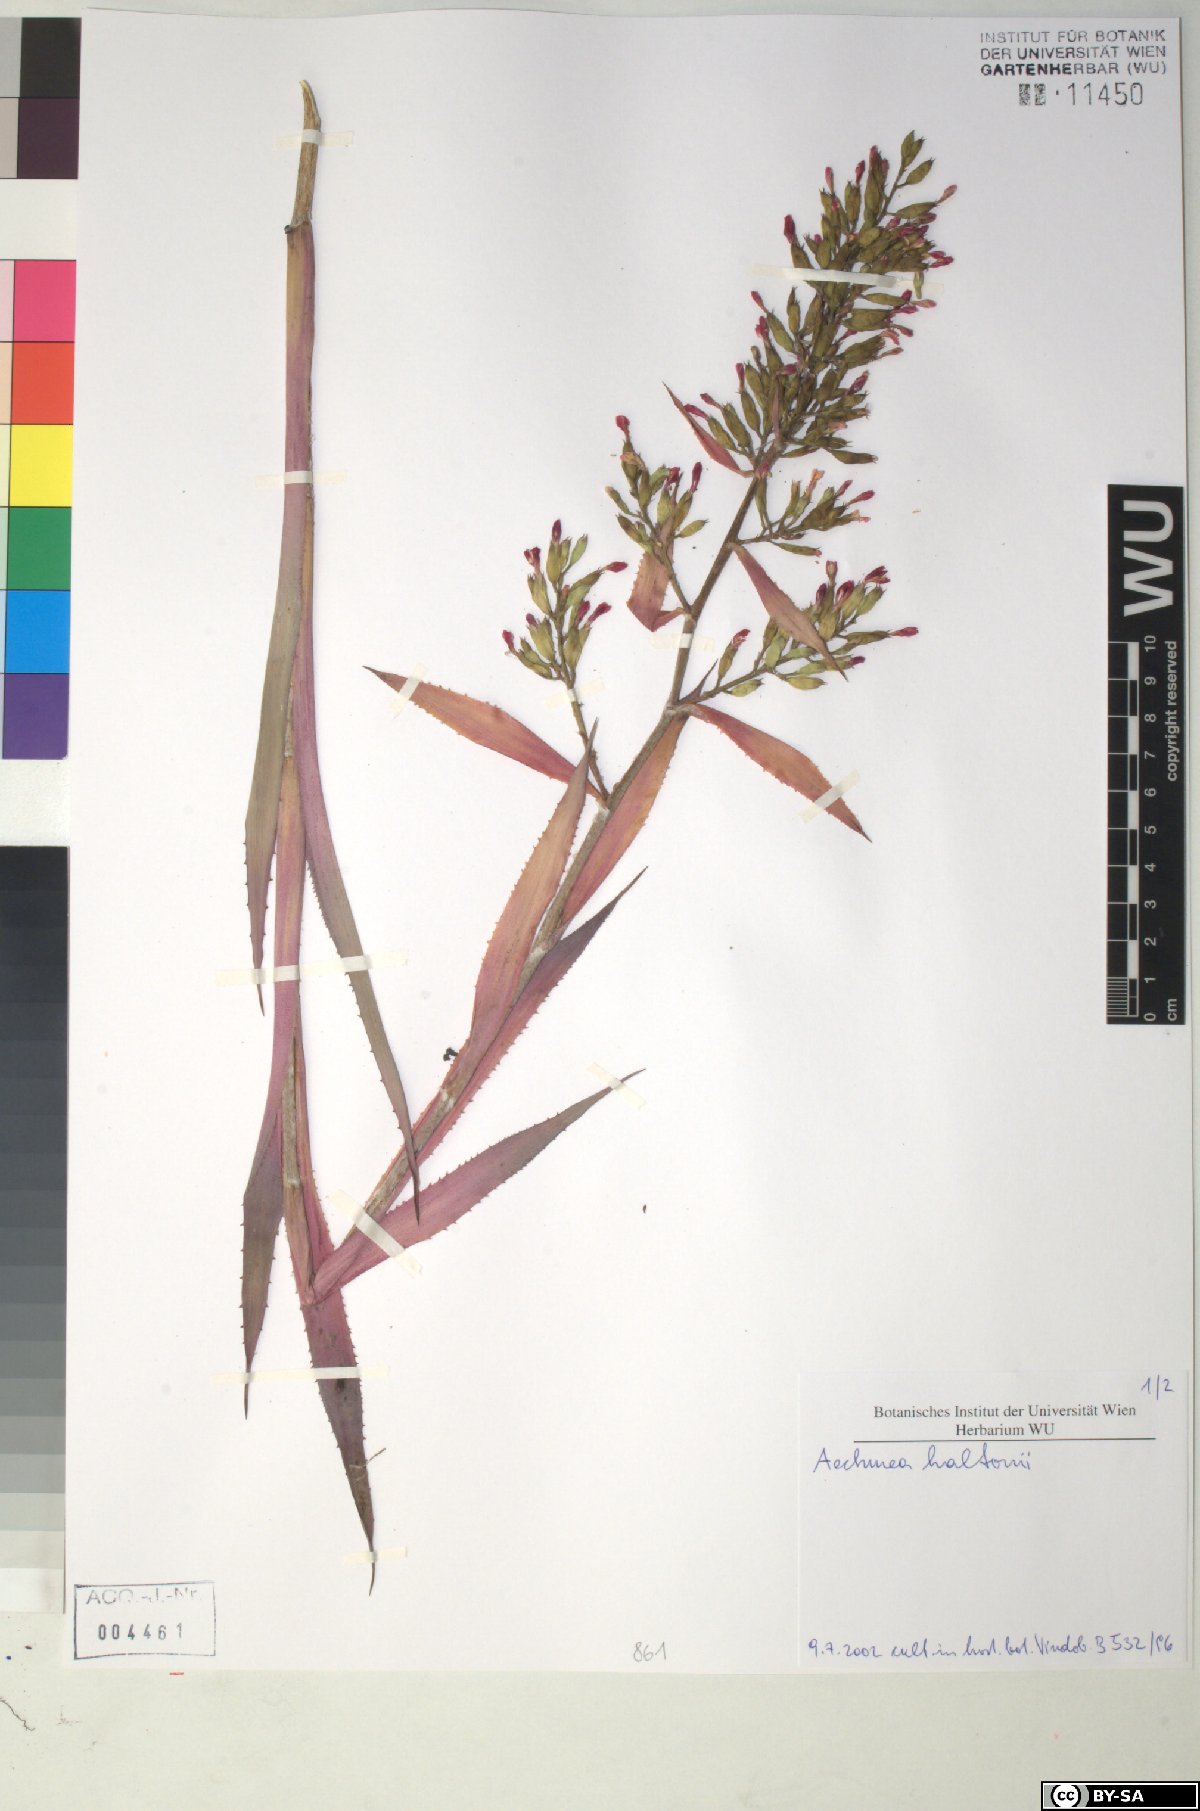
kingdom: Plantae
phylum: Tracheophyta
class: Liliopsida
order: Poales
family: Bromeliaceae
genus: Aechmea
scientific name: Aechmea haltonii
